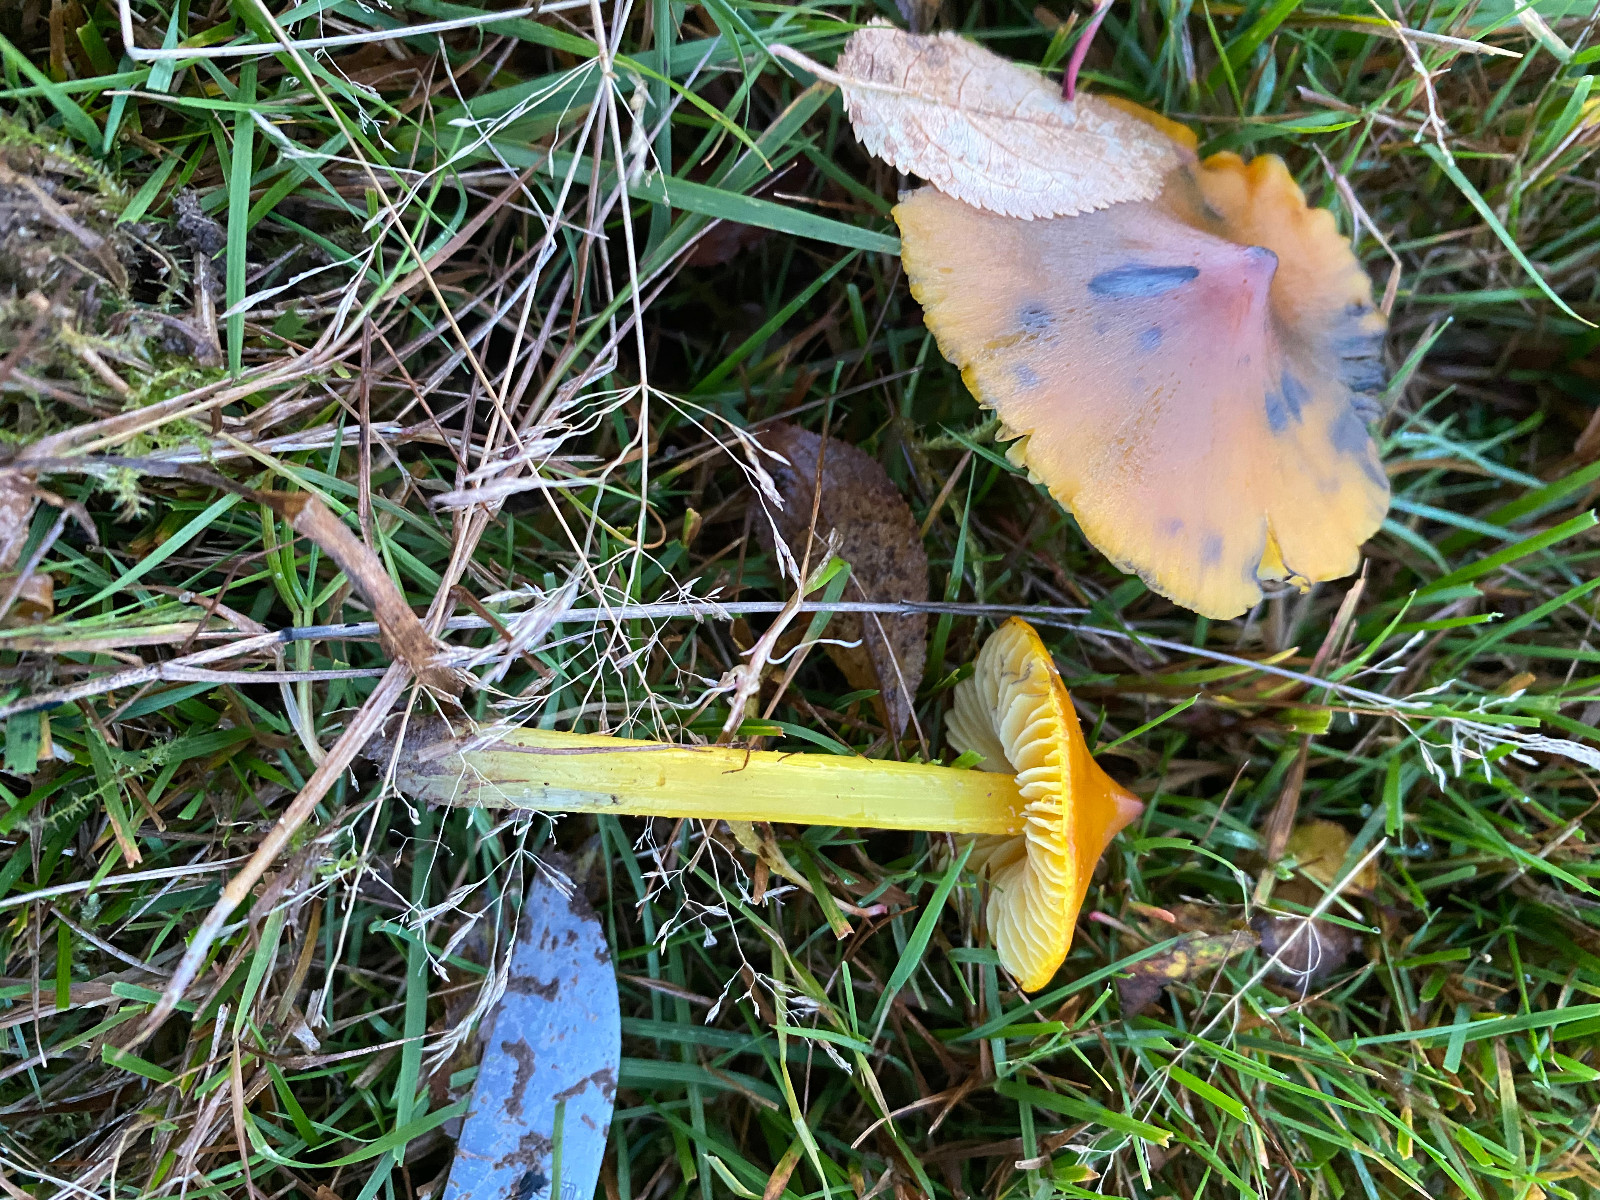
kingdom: Fungi
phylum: Basidiomycota
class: Agaricomycetes
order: Agaricales
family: Hygrophoraceae
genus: Hygrocybe
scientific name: Hygrocybe conica
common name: kegle-vokshat
